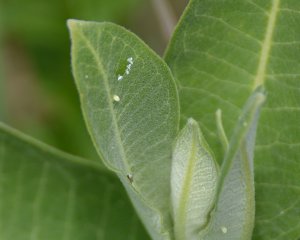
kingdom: Animalia
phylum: Arthropoda
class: Insecta
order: Lepidoptera
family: Nymphalidae
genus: Danaus
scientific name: Danaus plexippus
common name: Monarch
